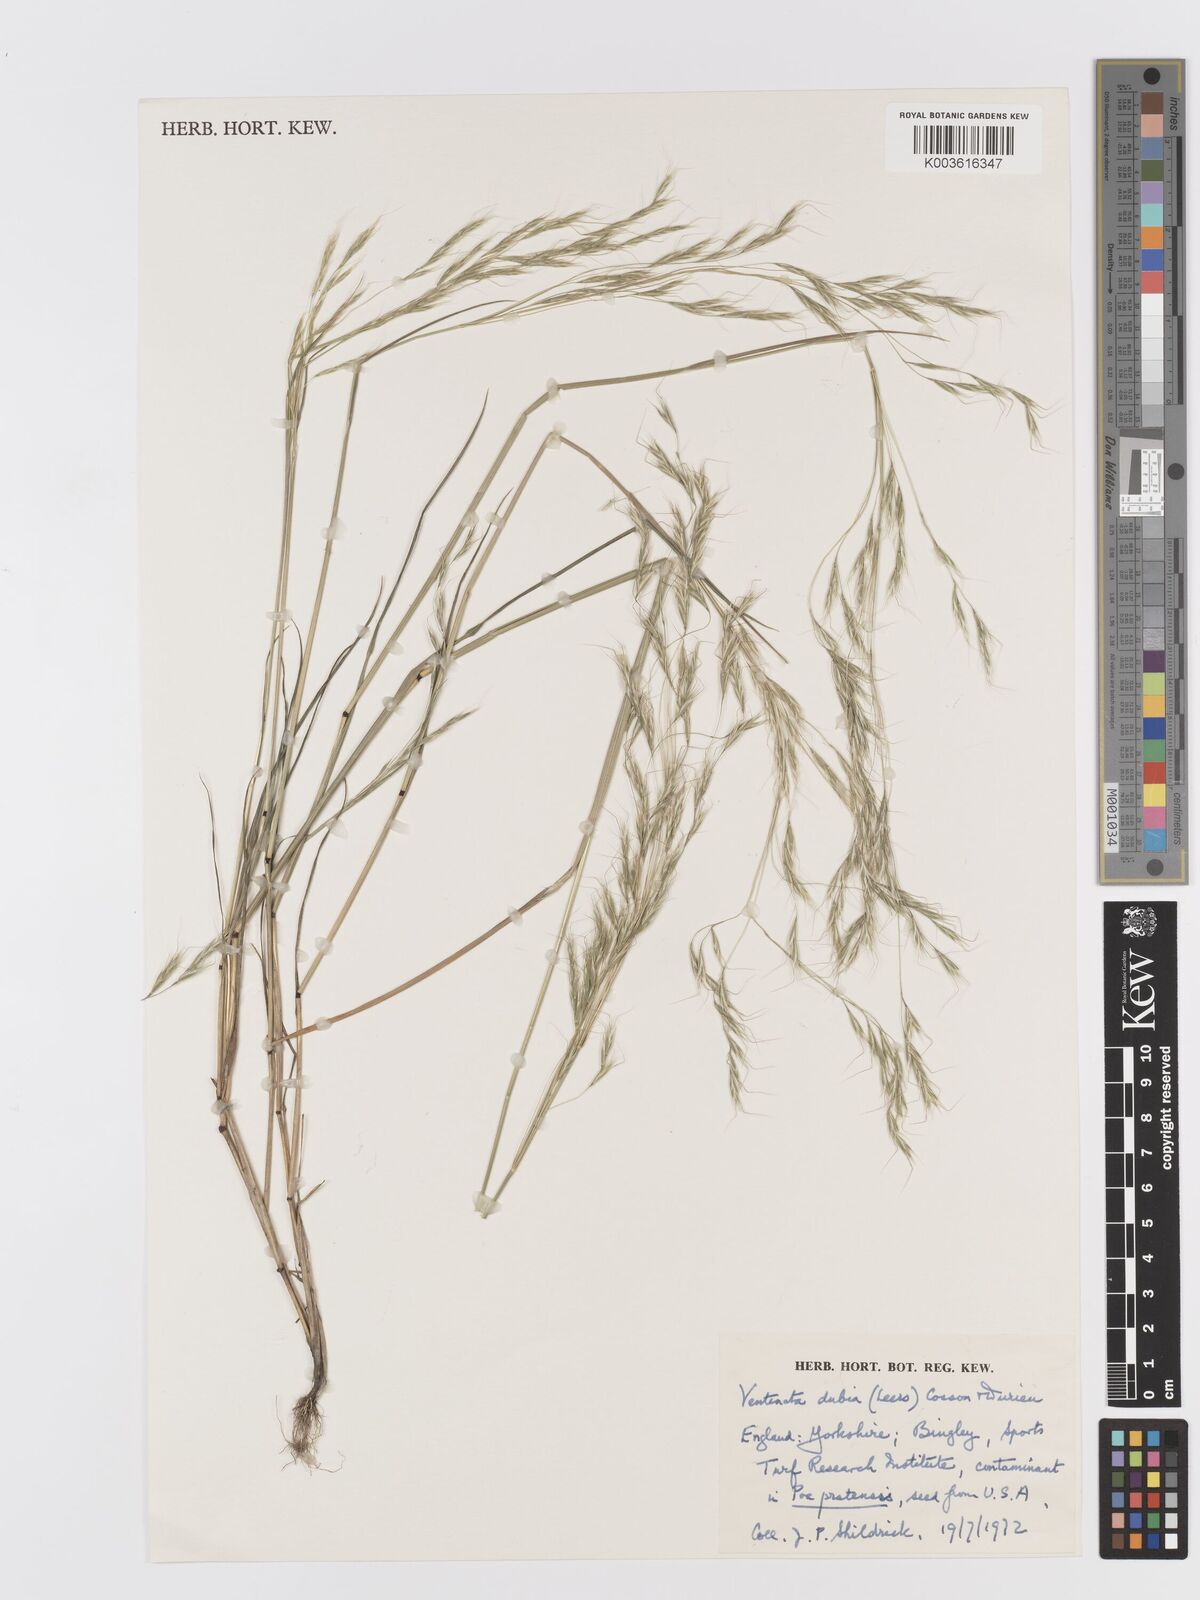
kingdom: Plantae
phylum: Tracheophyta
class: Liliopsida
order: Poales
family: Poaceae
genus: Ventenata
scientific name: Ventenata dubia
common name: North africa grass
